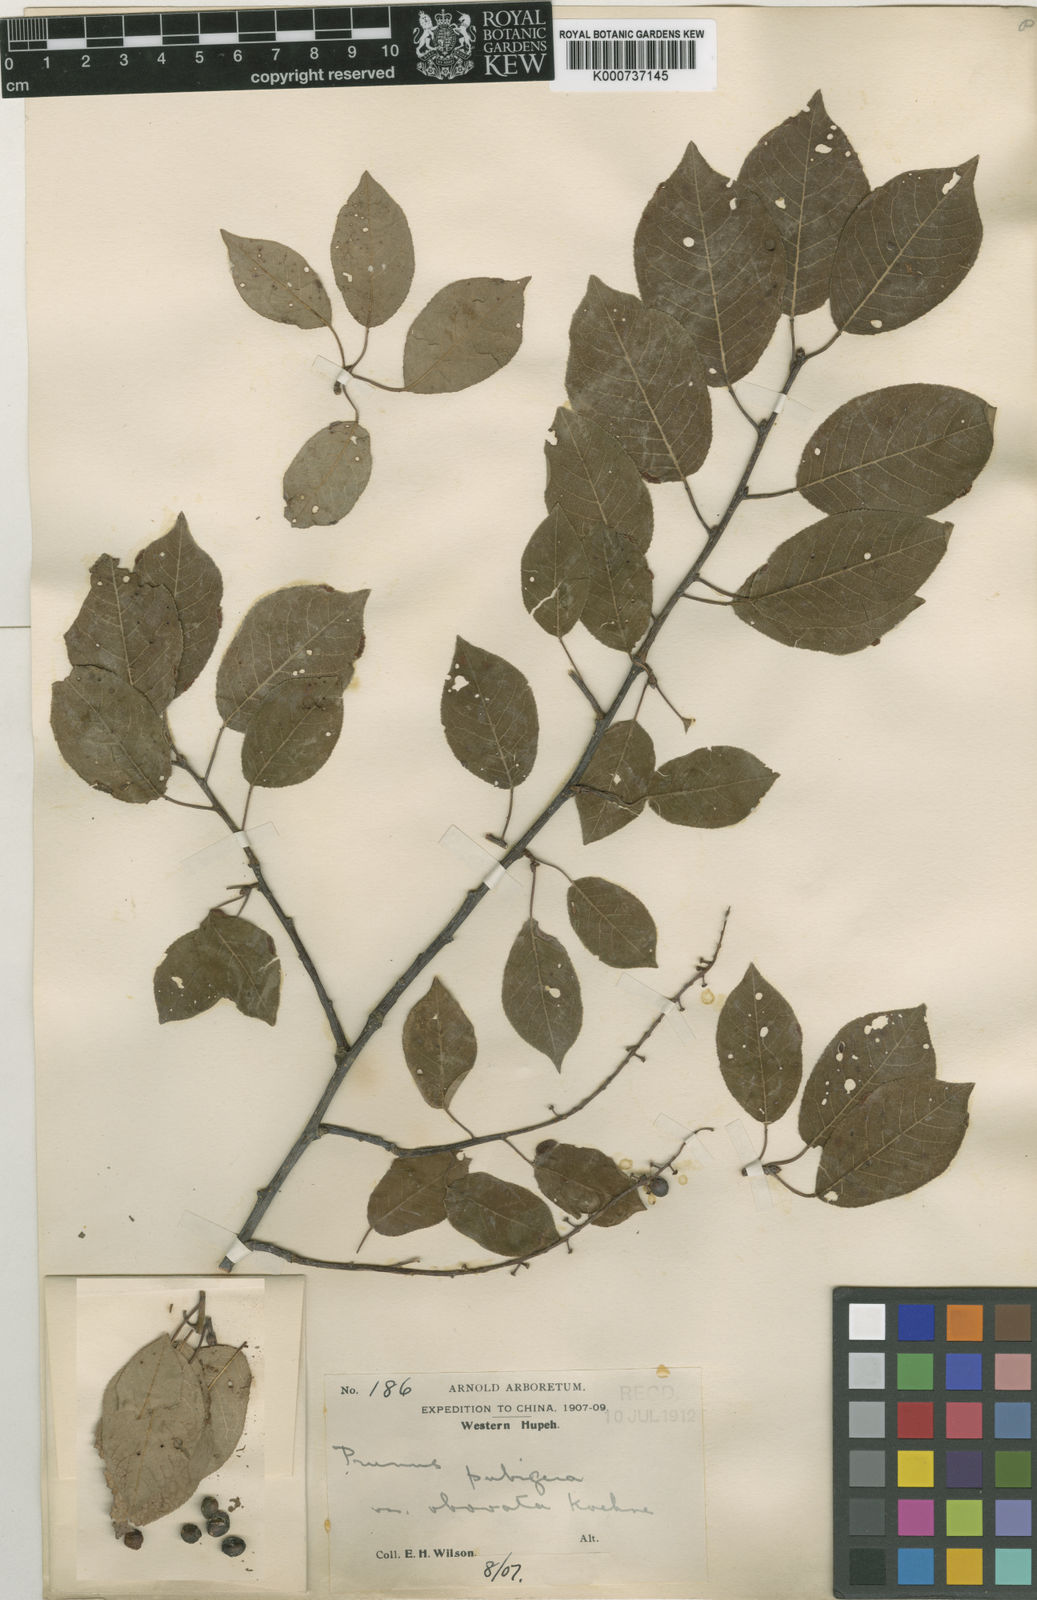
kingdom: Plantae
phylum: Tracheophyta
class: Magnoliopsida
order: Rosales
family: Rosaceae
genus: Prunus
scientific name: Prunus obtusata
